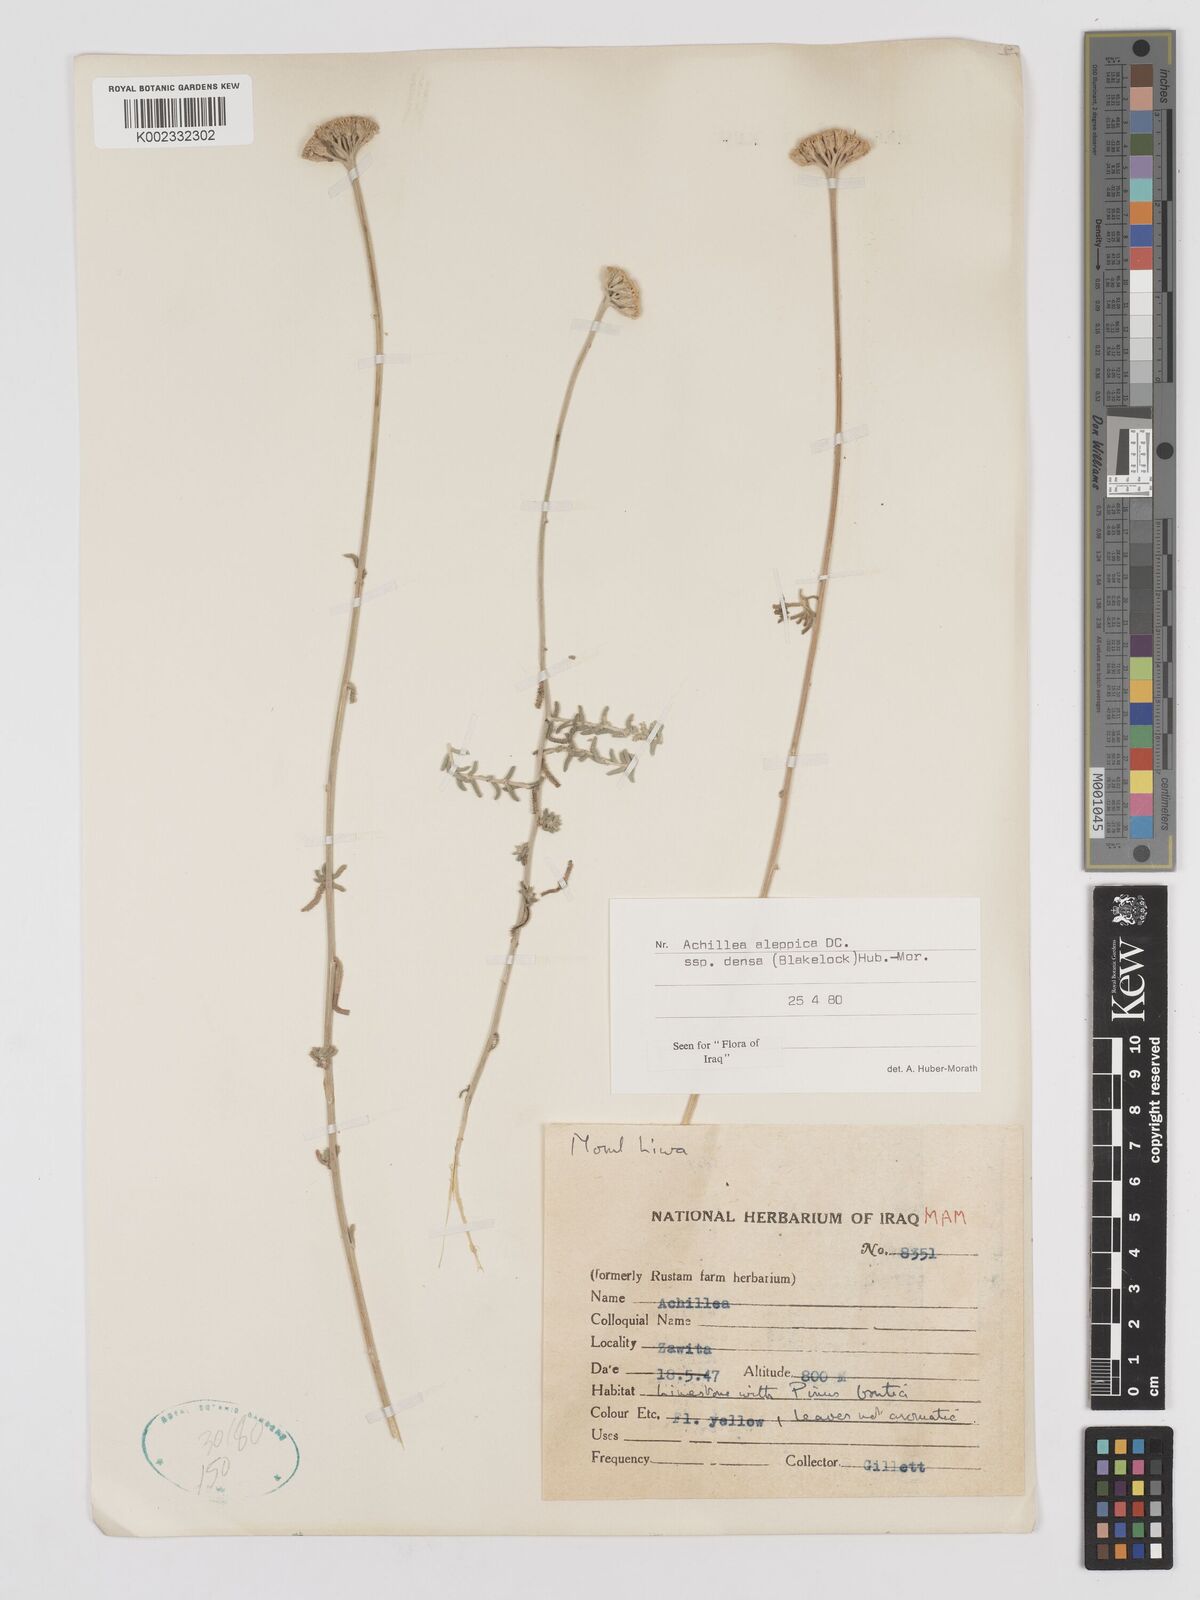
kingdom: Plantae
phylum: Tracheophyta
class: Magnoliopsida
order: Asterales
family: Asteraceae
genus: Achillea
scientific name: Achillea aleppica
